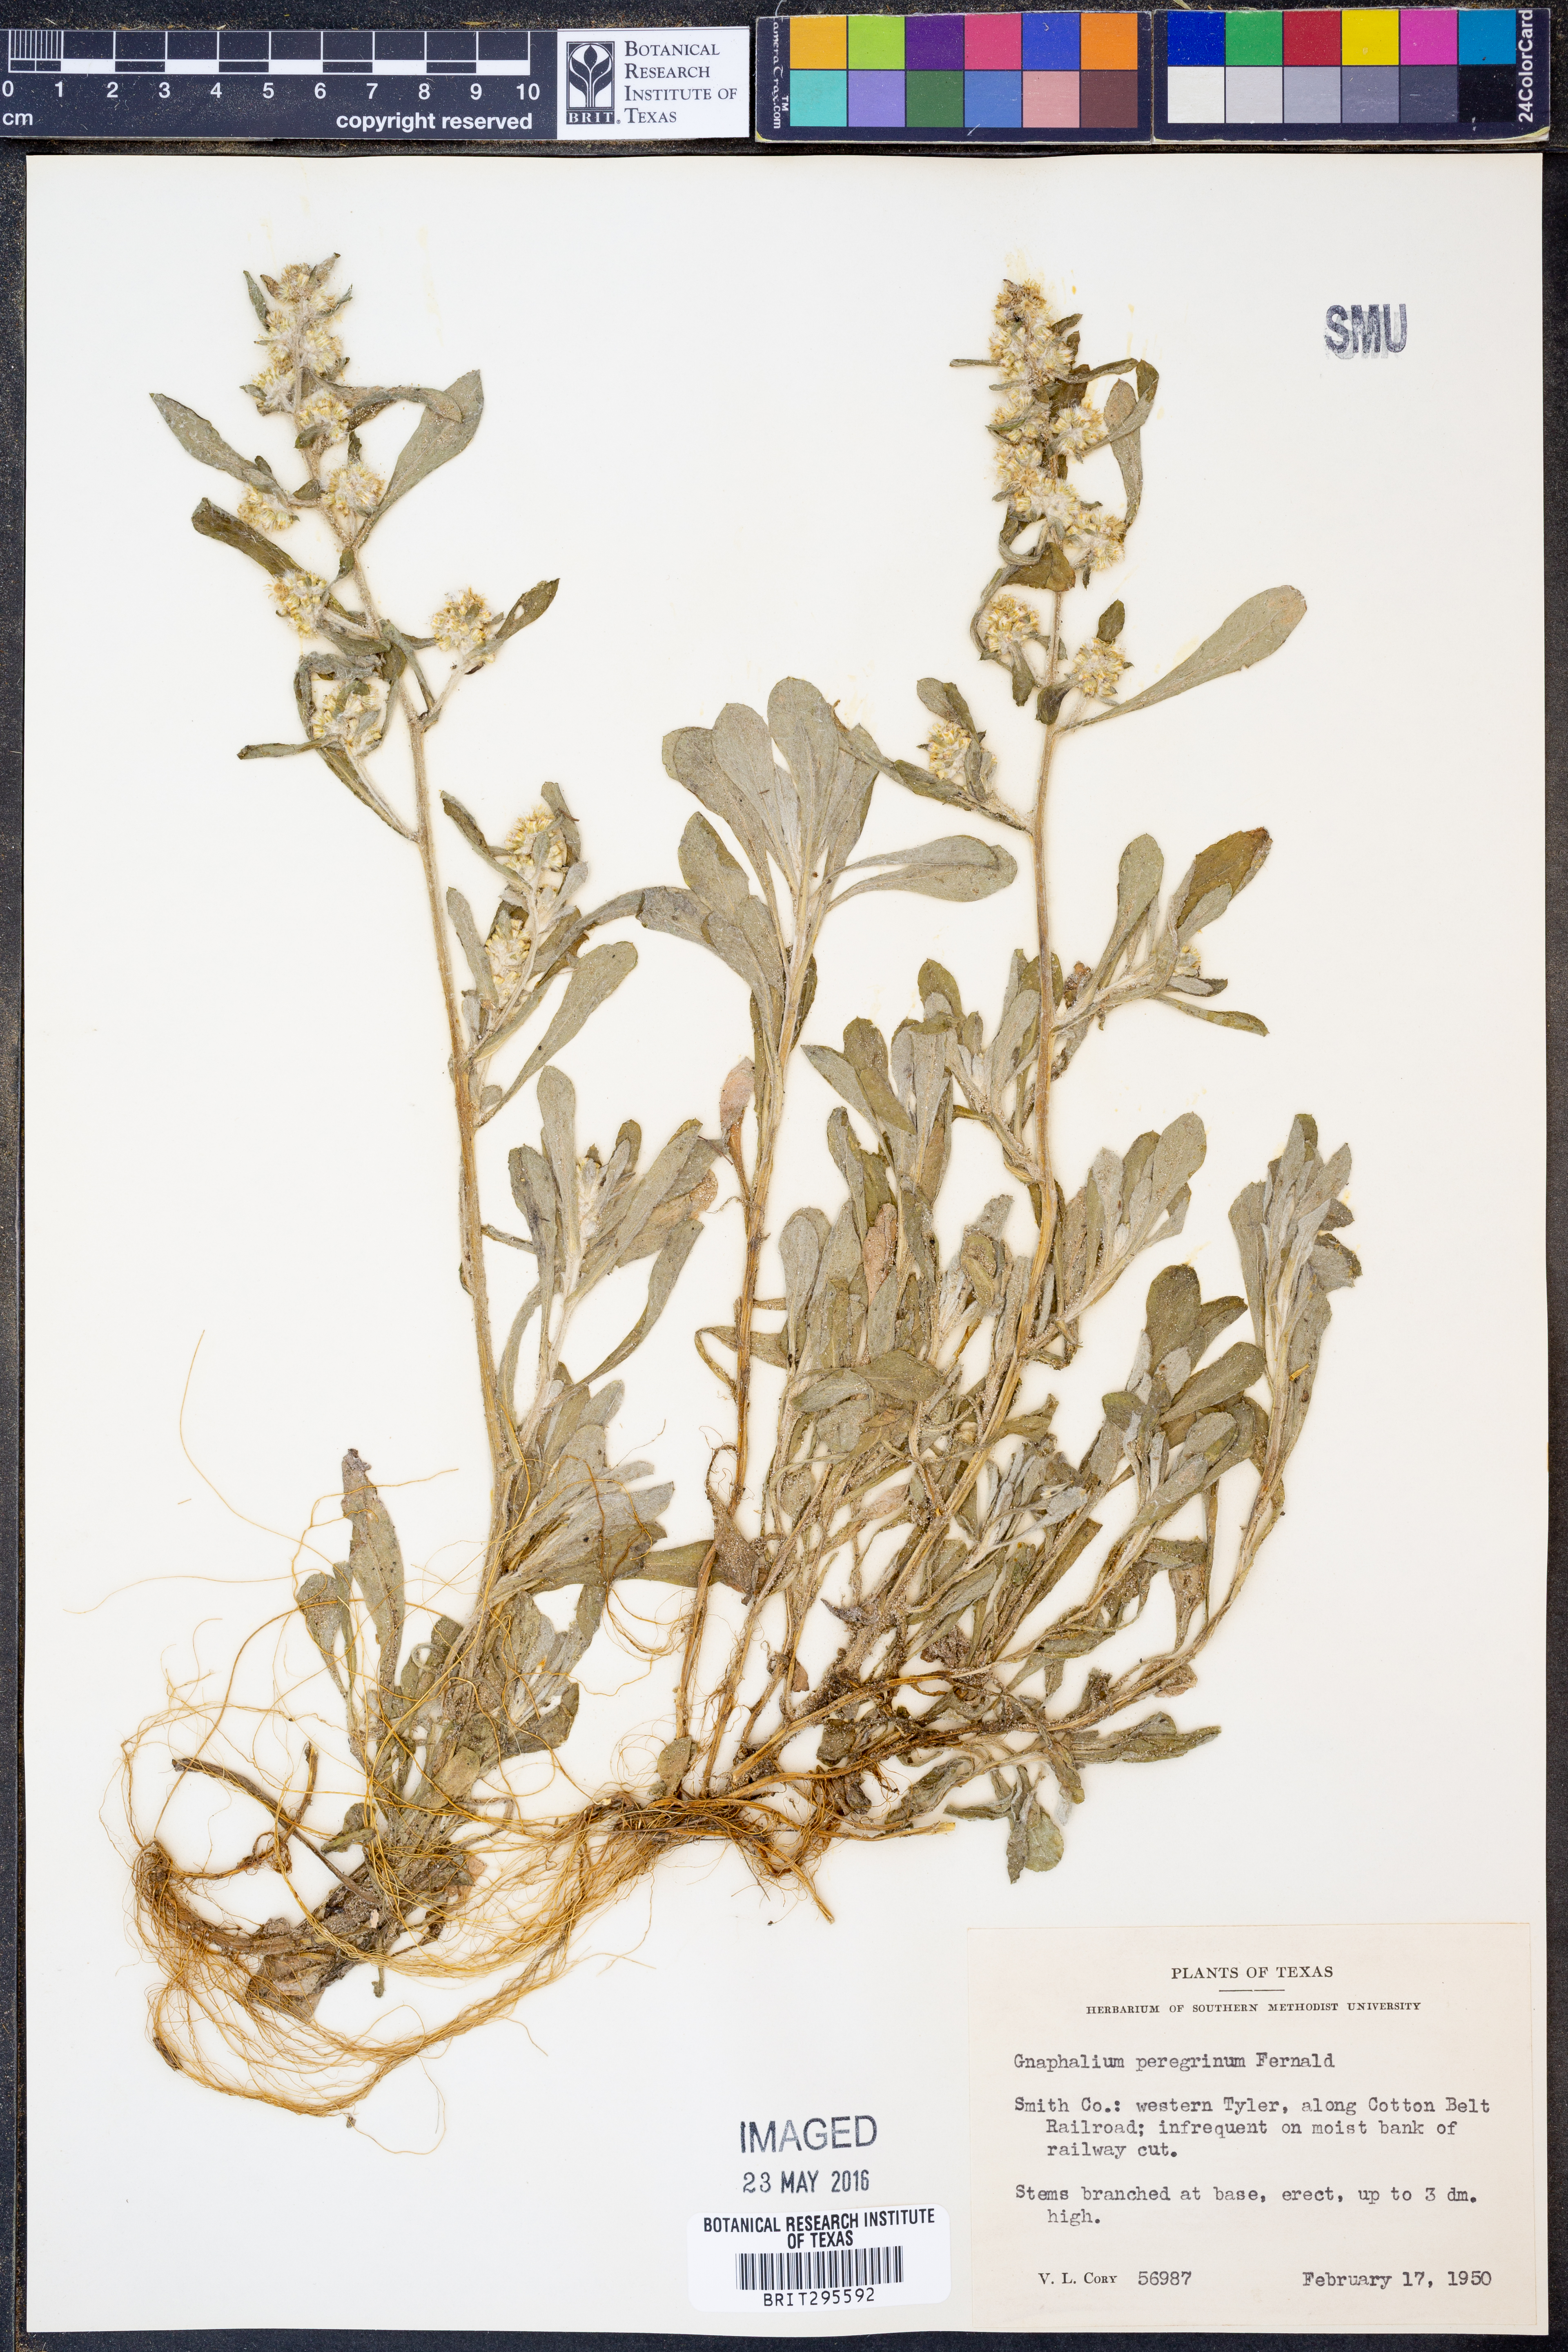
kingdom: Plantae
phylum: Tracheophyta
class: Magnoliopsida
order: Asterales
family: Asteraceae
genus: Gamochaeta
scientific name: Gamochaeta pensylvanica
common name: Pennsylvania everlasting
